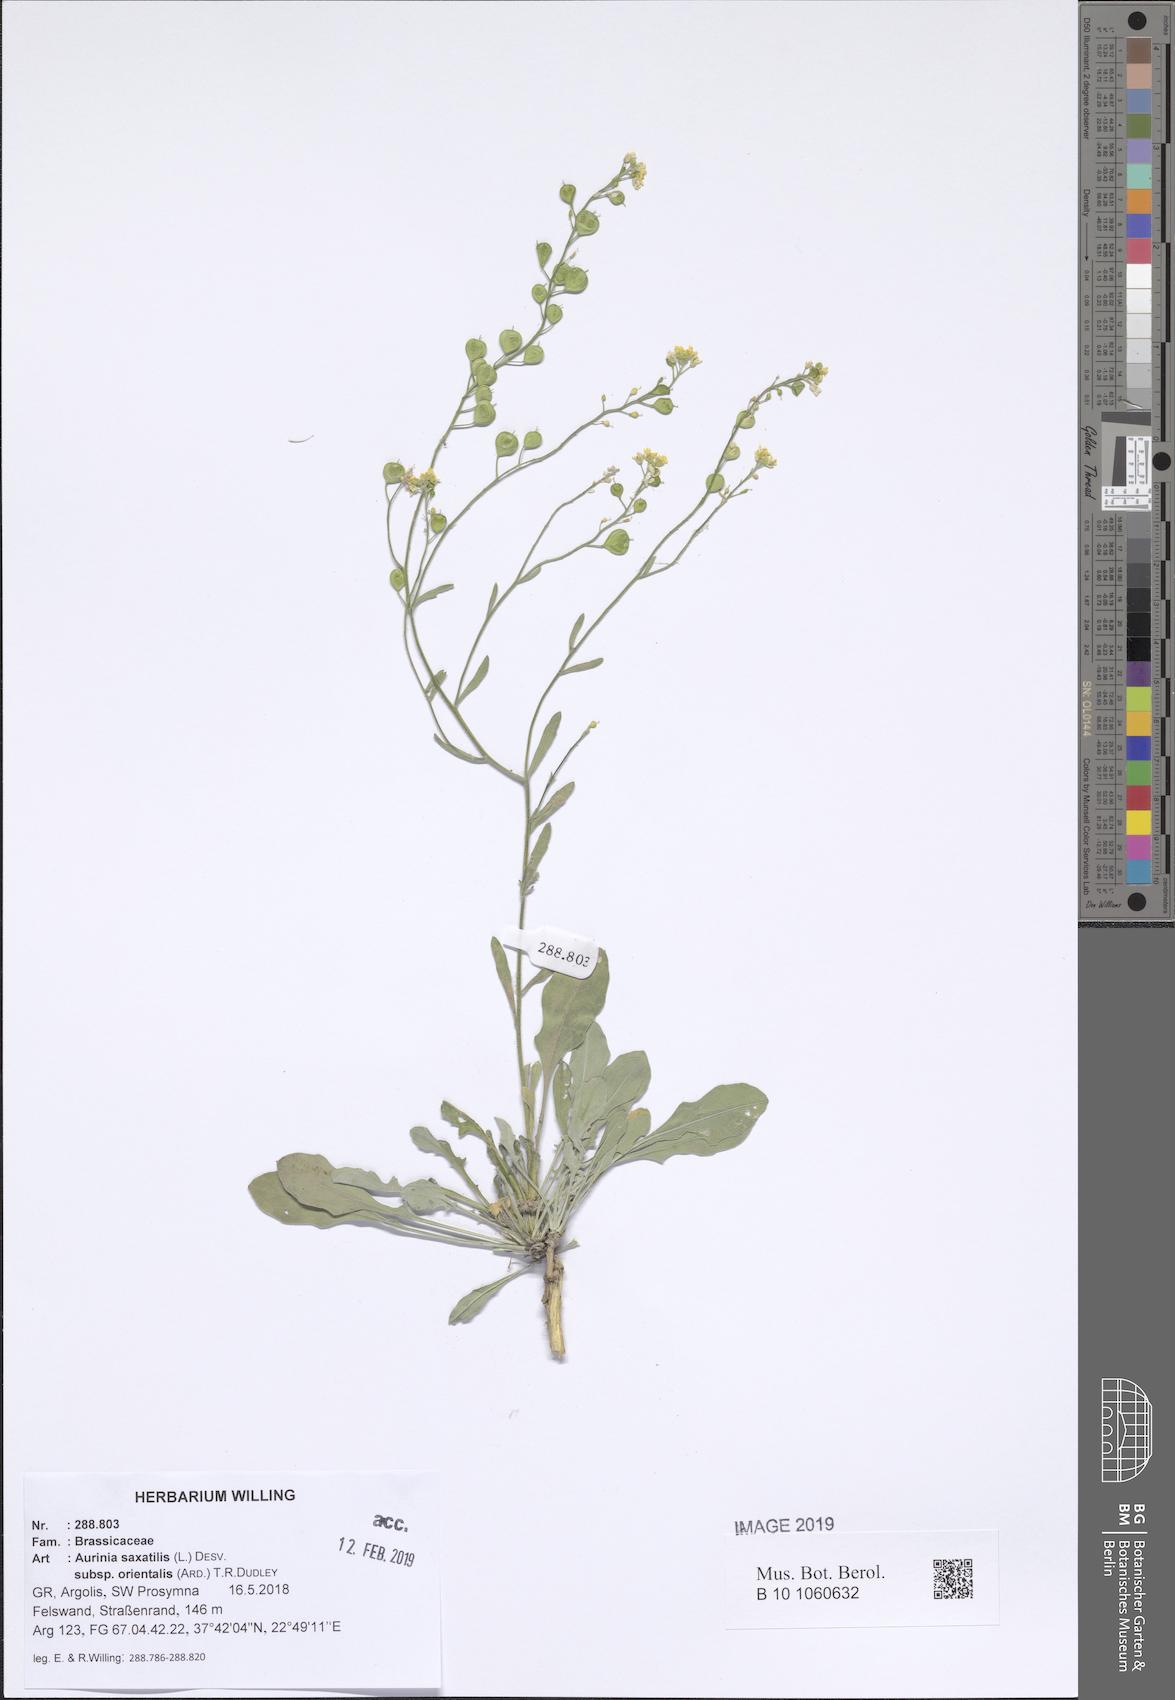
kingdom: Plantae
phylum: Tracheophyta
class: Magnoliopsida
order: Brassicales
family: Brassicaceae
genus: Aurinia
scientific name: Aurinia saxatilis
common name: Golden-tuft alyssum
